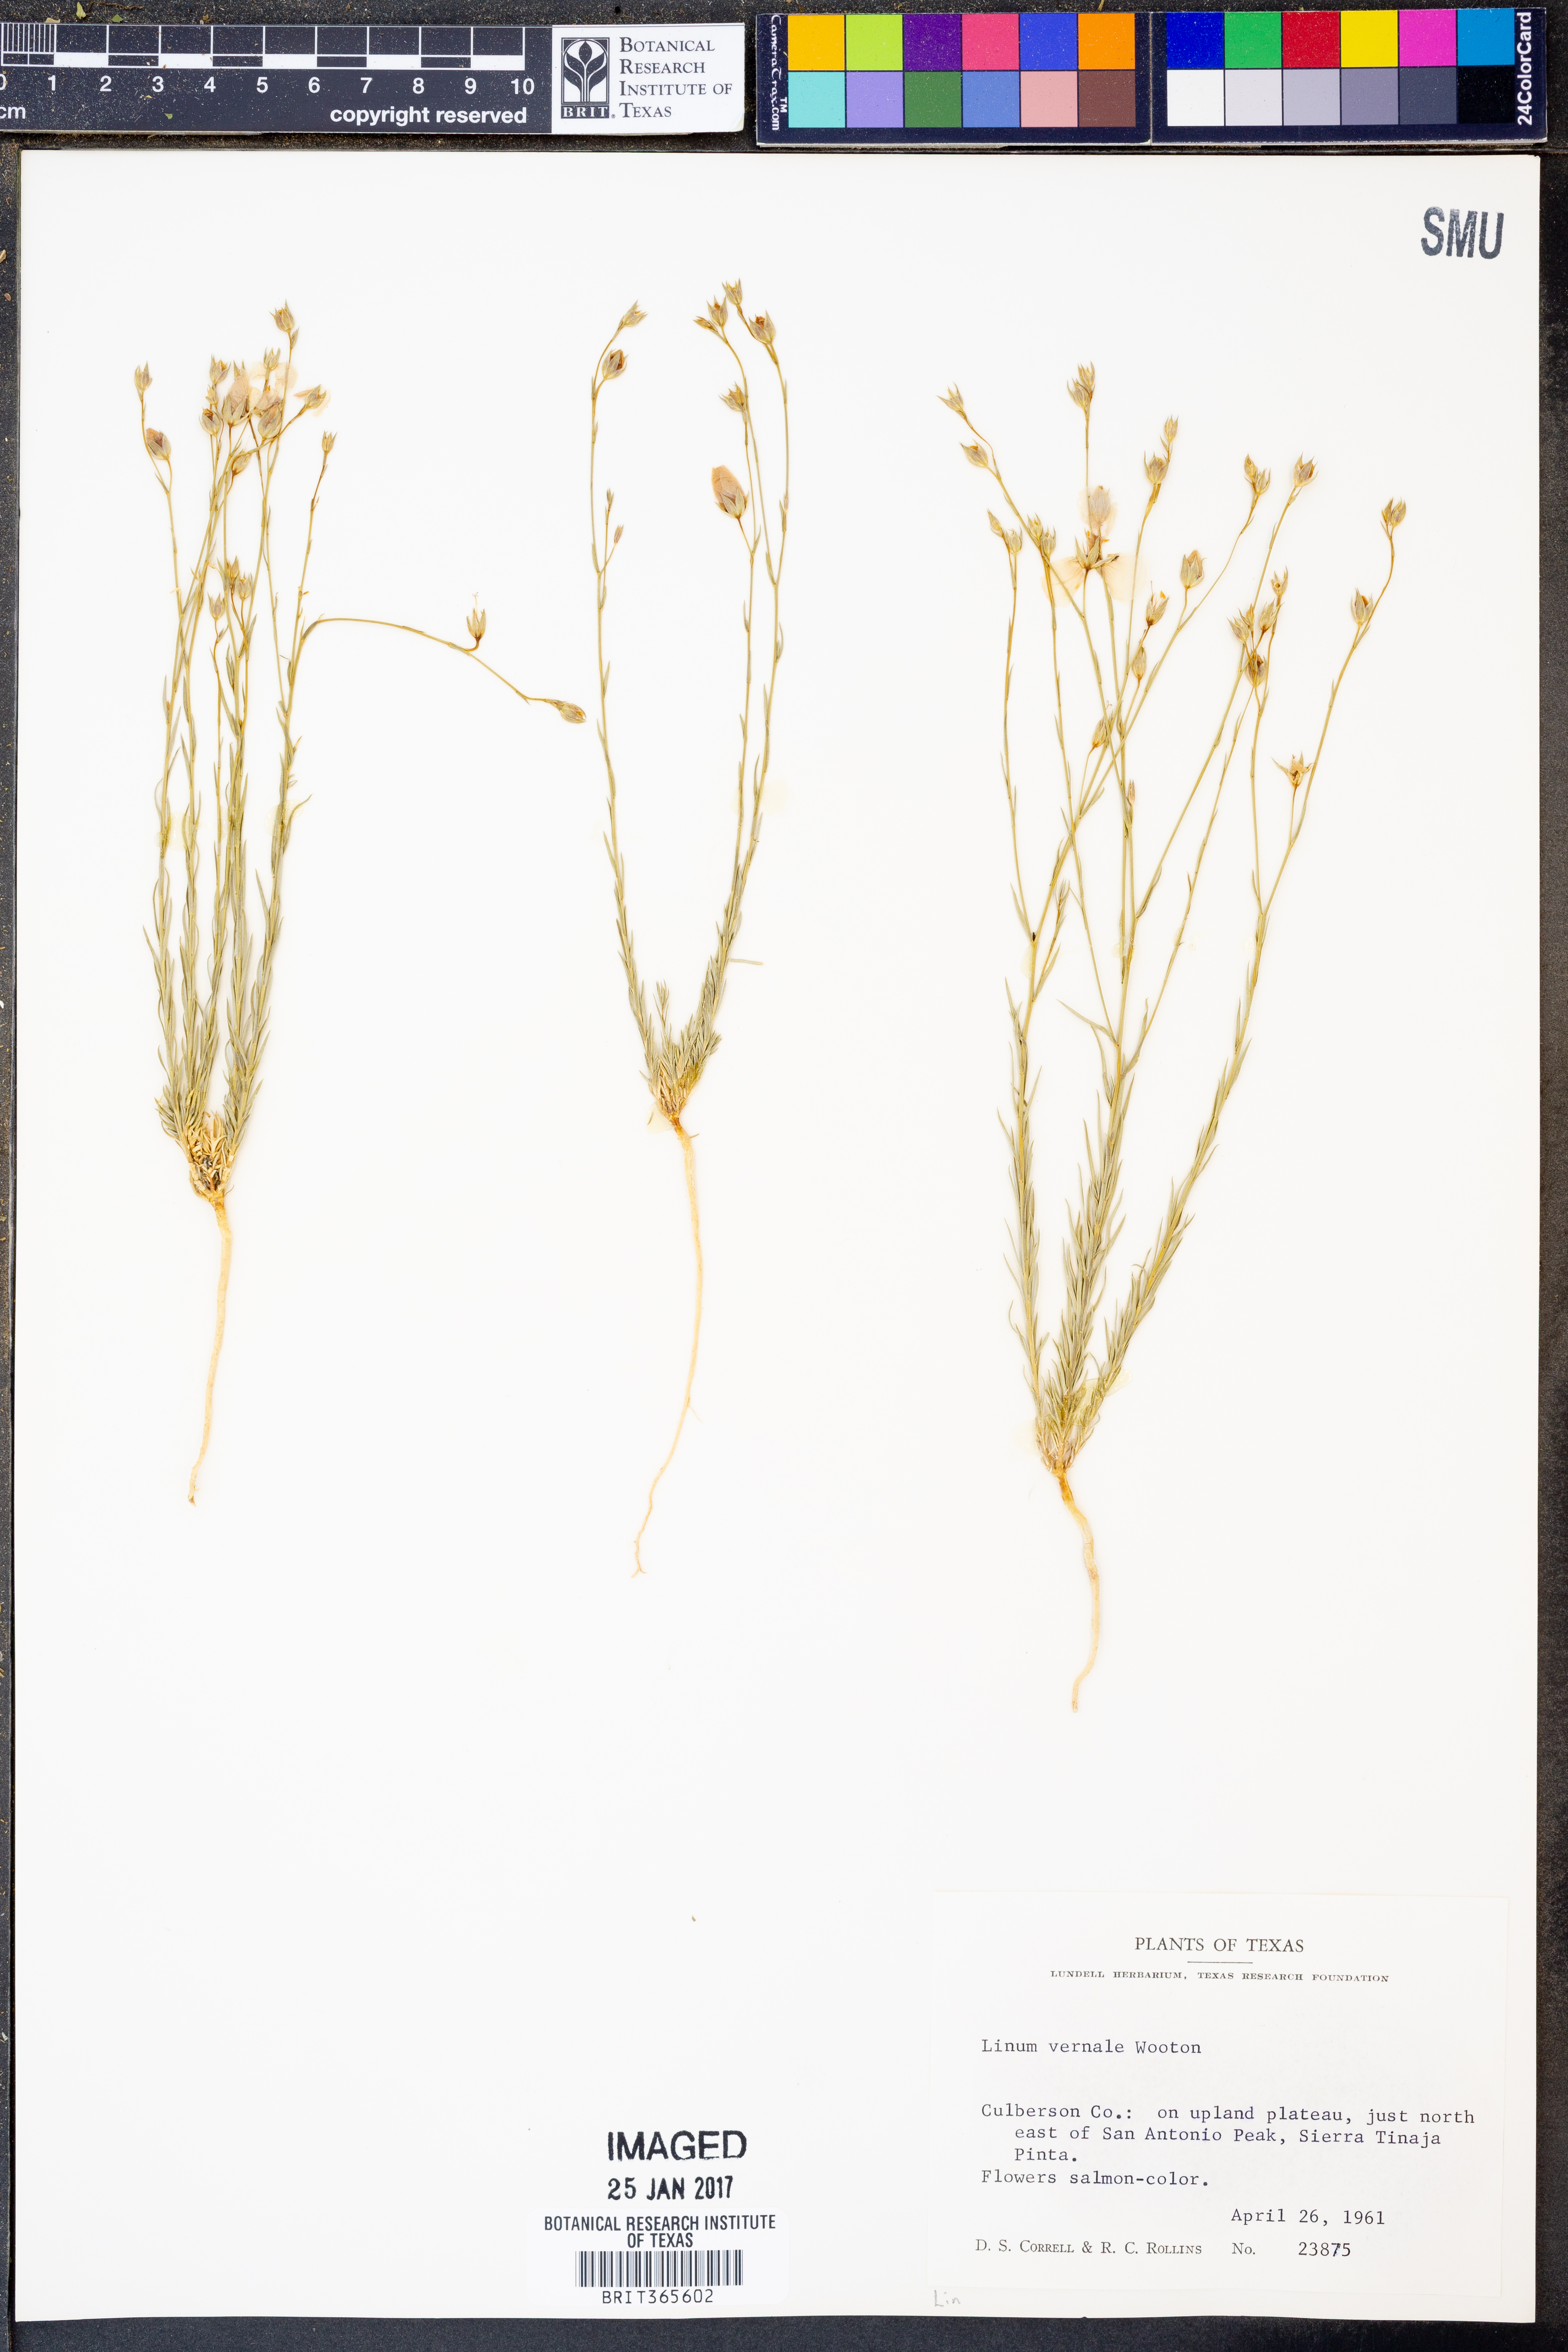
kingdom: Plantae
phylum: Tracheophyta
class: Magnoliopsida
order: Malpighiales
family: Linaceae
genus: Linum
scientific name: Linum vernale
